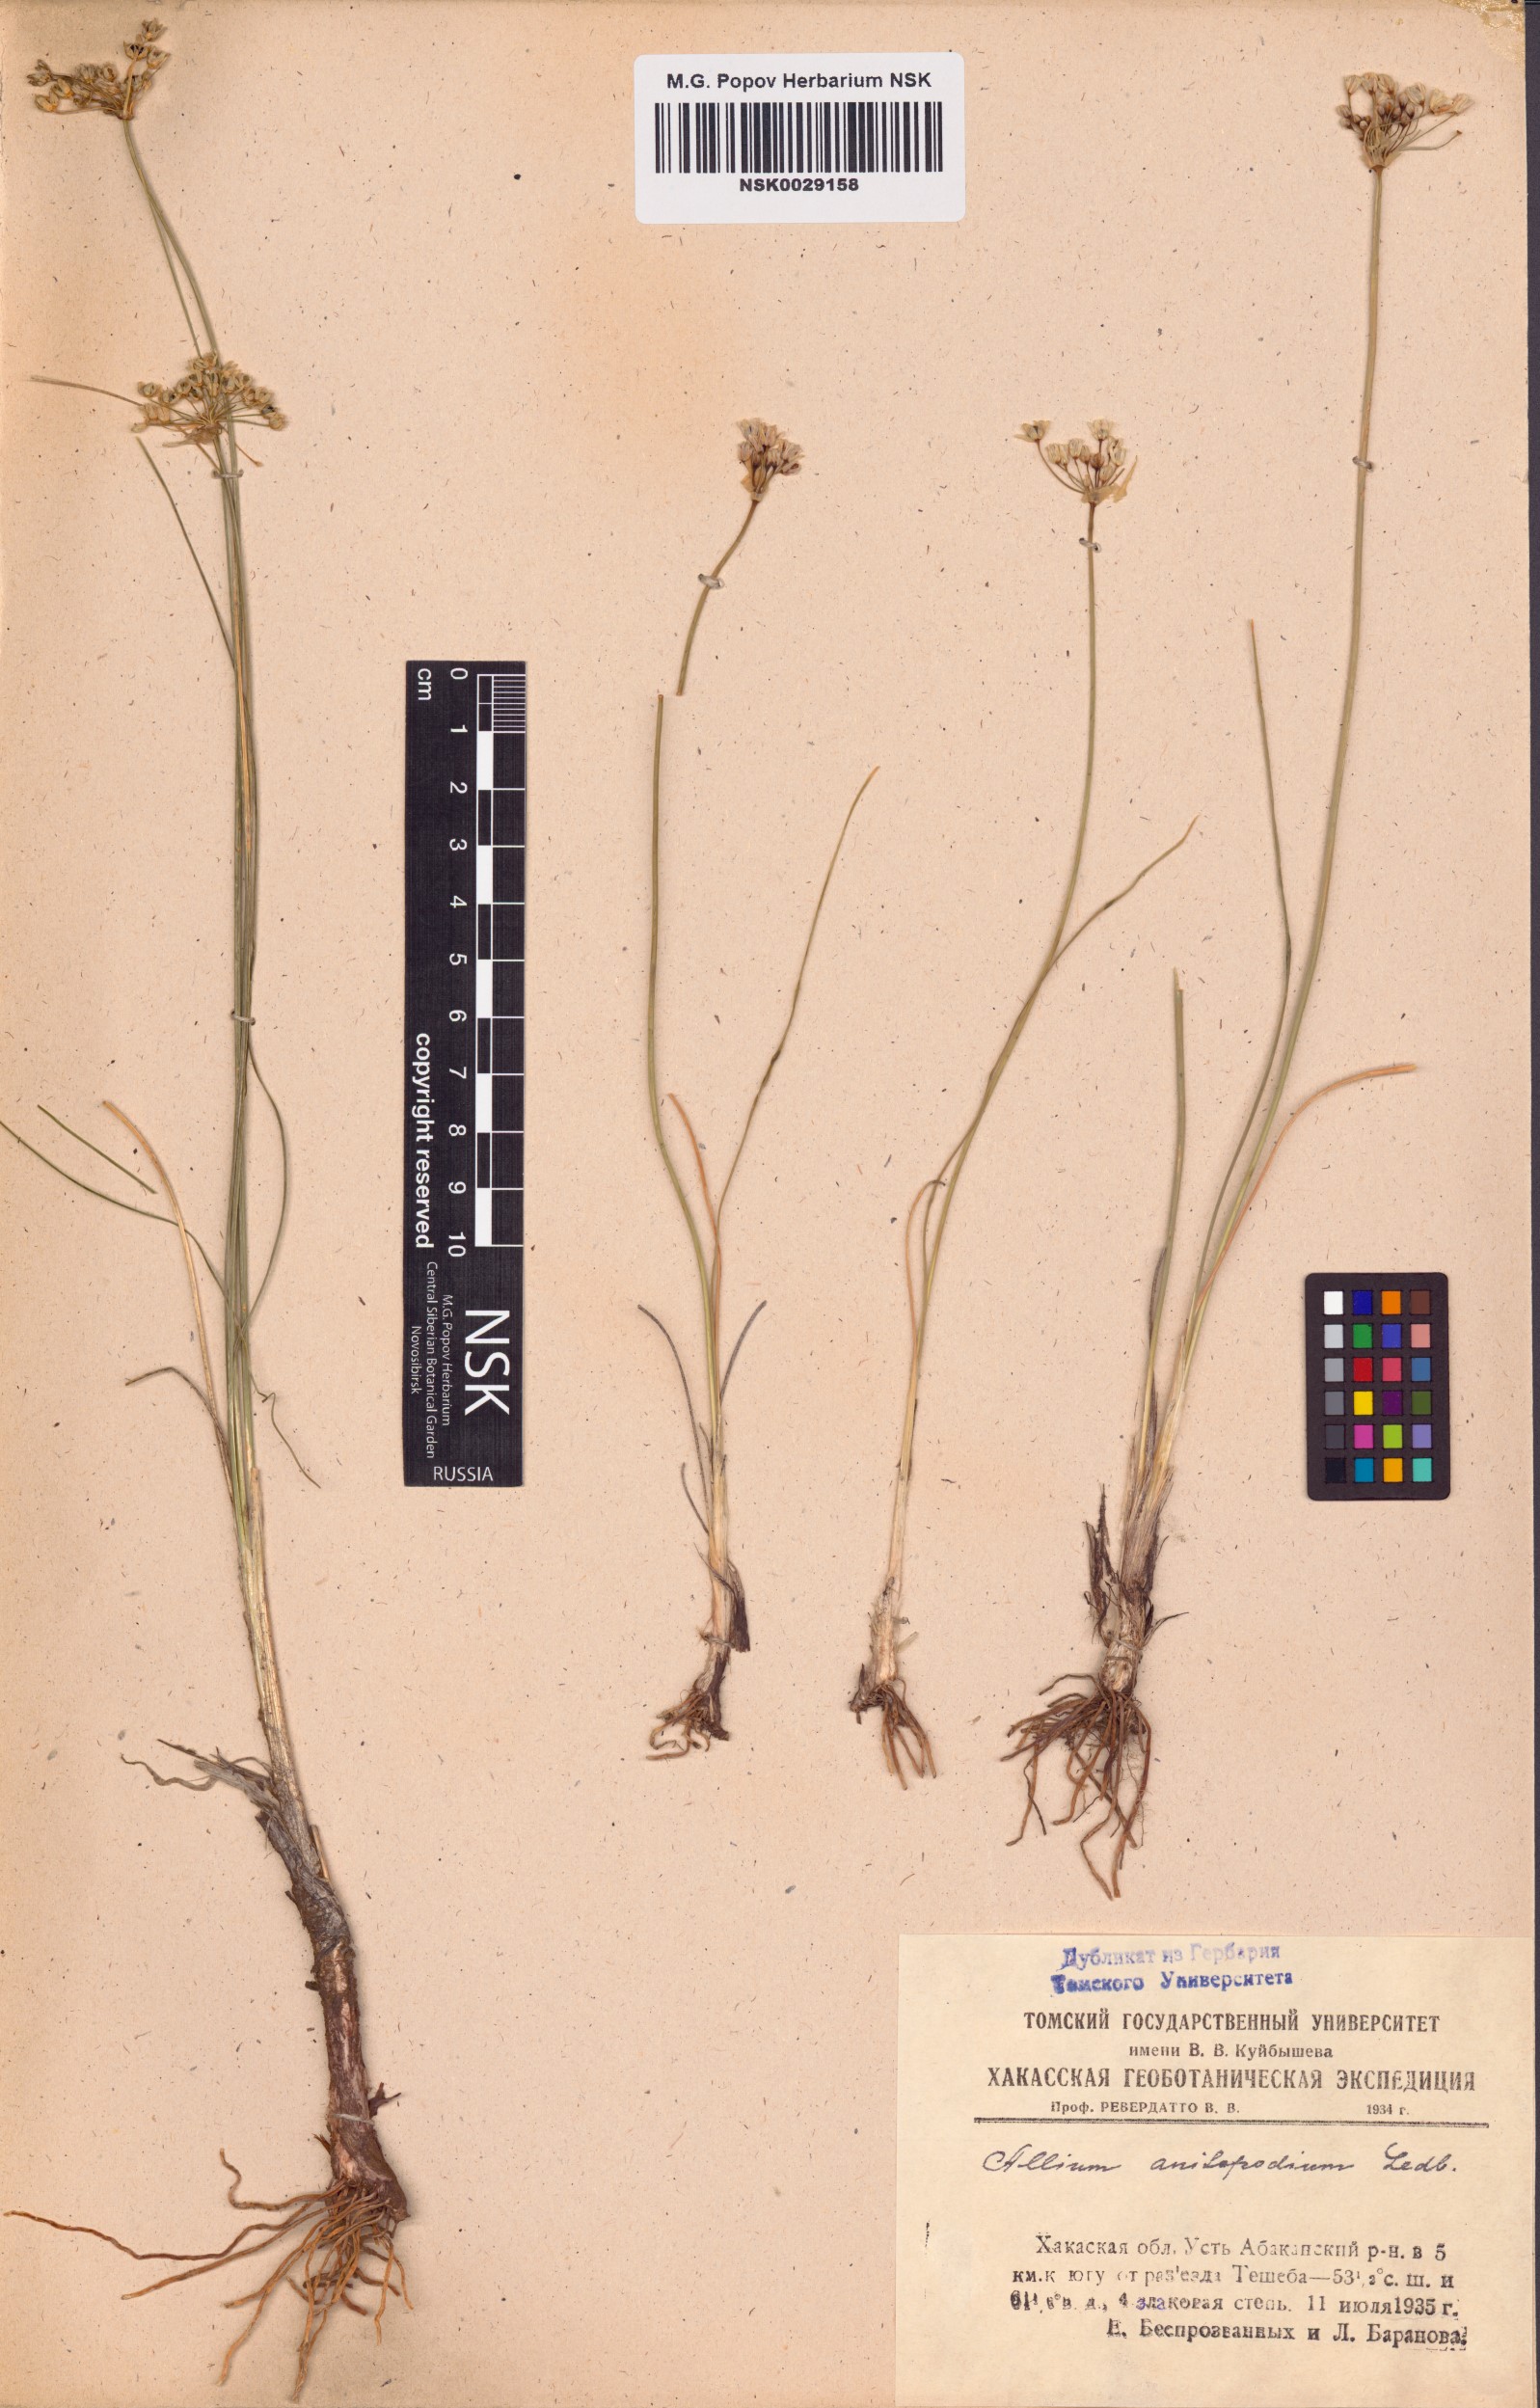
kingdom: Plantae
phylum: Tracheophyta
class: Liliopsida
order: Asparagales
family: Amaryllidaceae
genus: Allium
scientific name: Allium anisopodium
